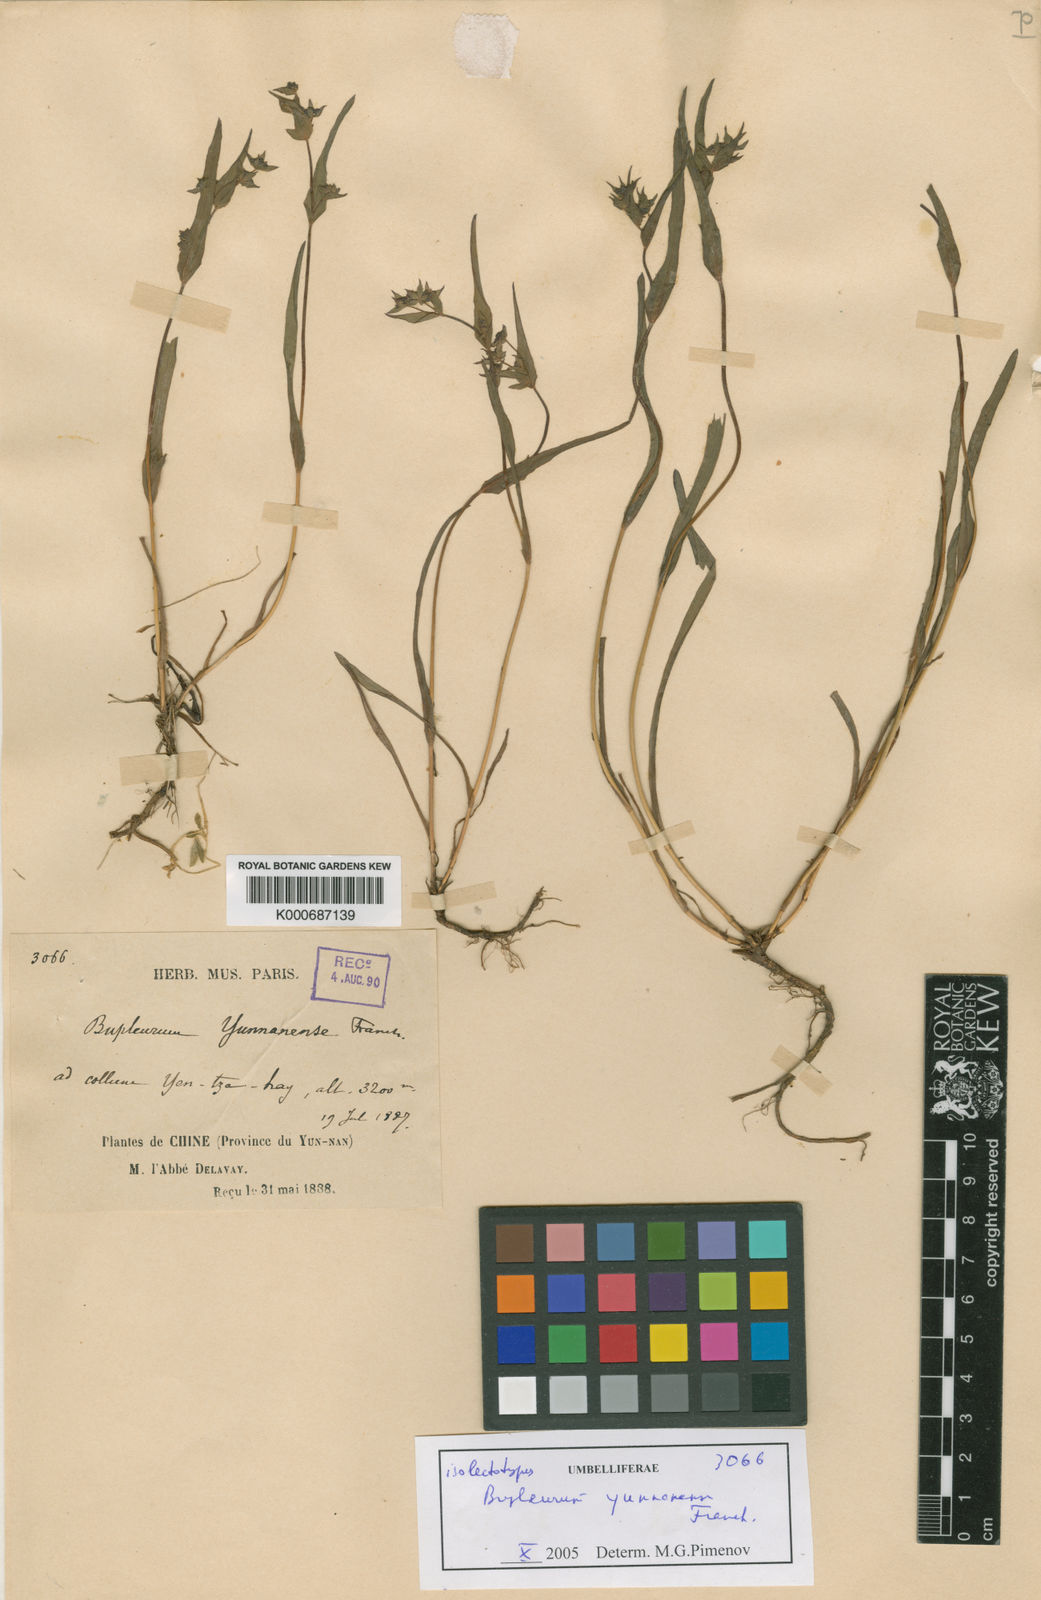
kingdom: Plantae
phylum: Tracheophyta
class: Magnoliopsida
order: Apiales
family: Apiaceae
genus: Bupleurum
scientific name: Bupleurum yunnanense
